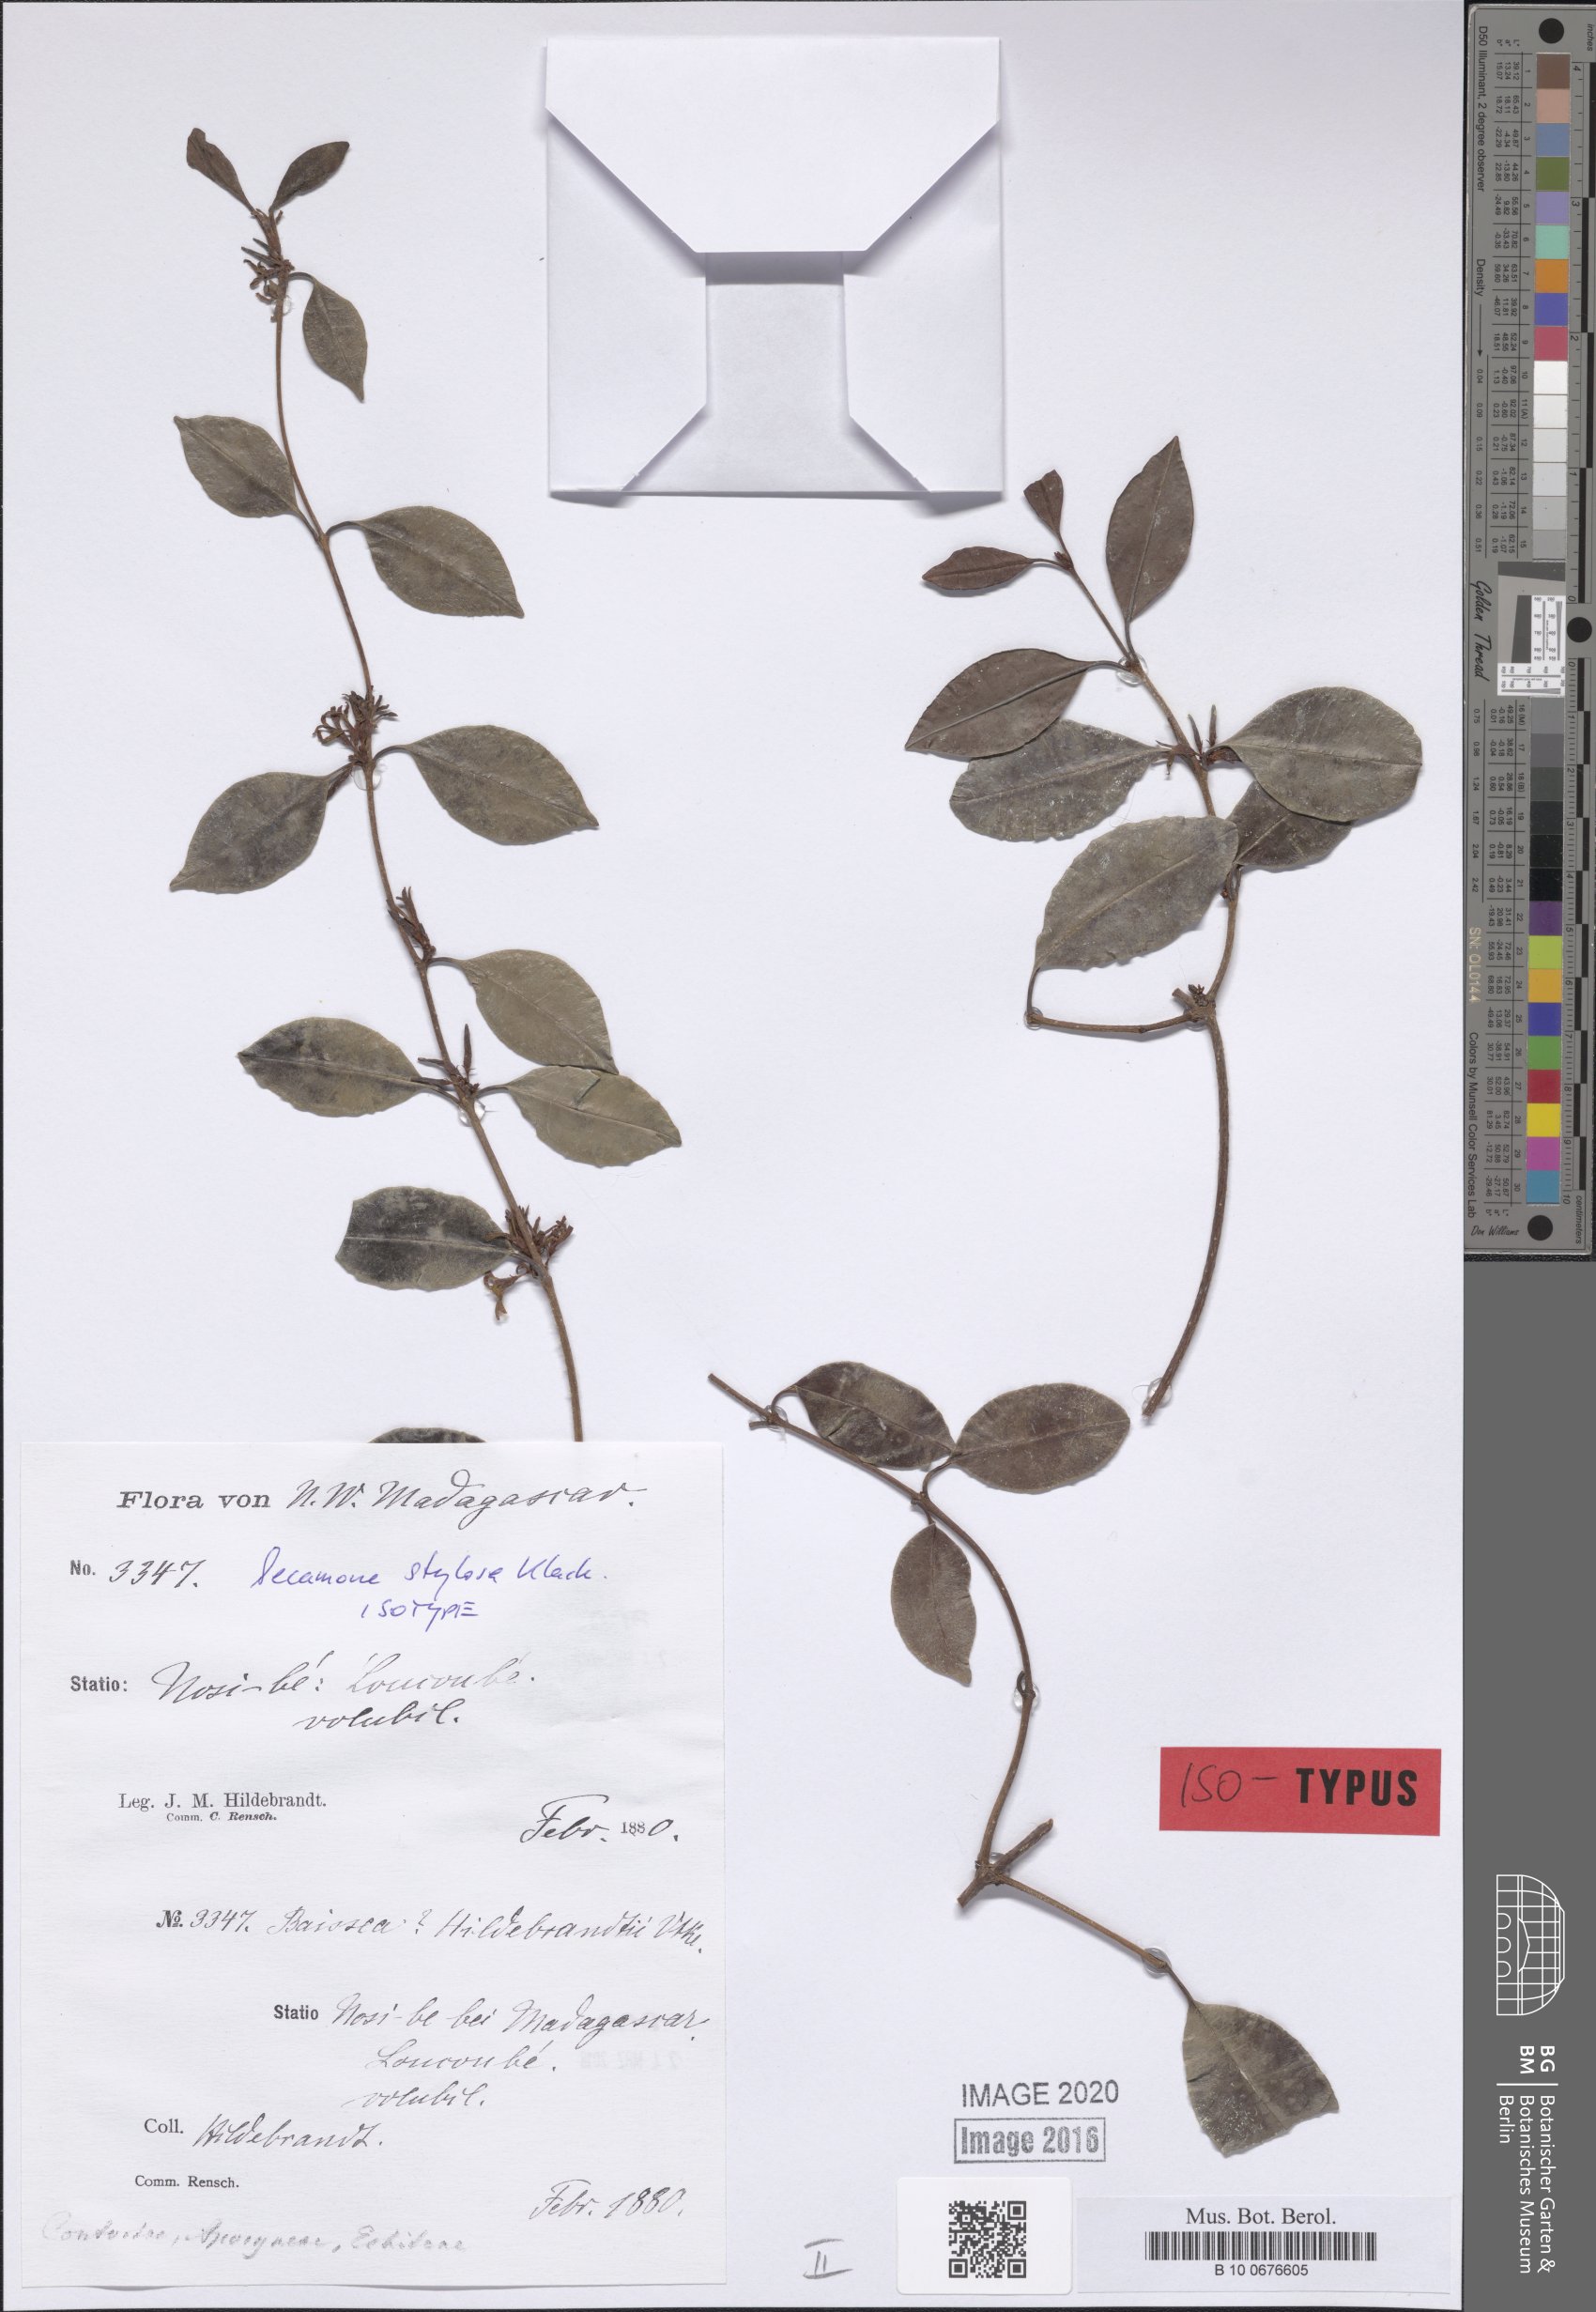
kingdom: Plantae
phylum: Tracheophyta
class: Magnoliopsida
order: Gentianales
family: Apocynaceae
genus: Secamone
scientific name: Secamone sulfurea
